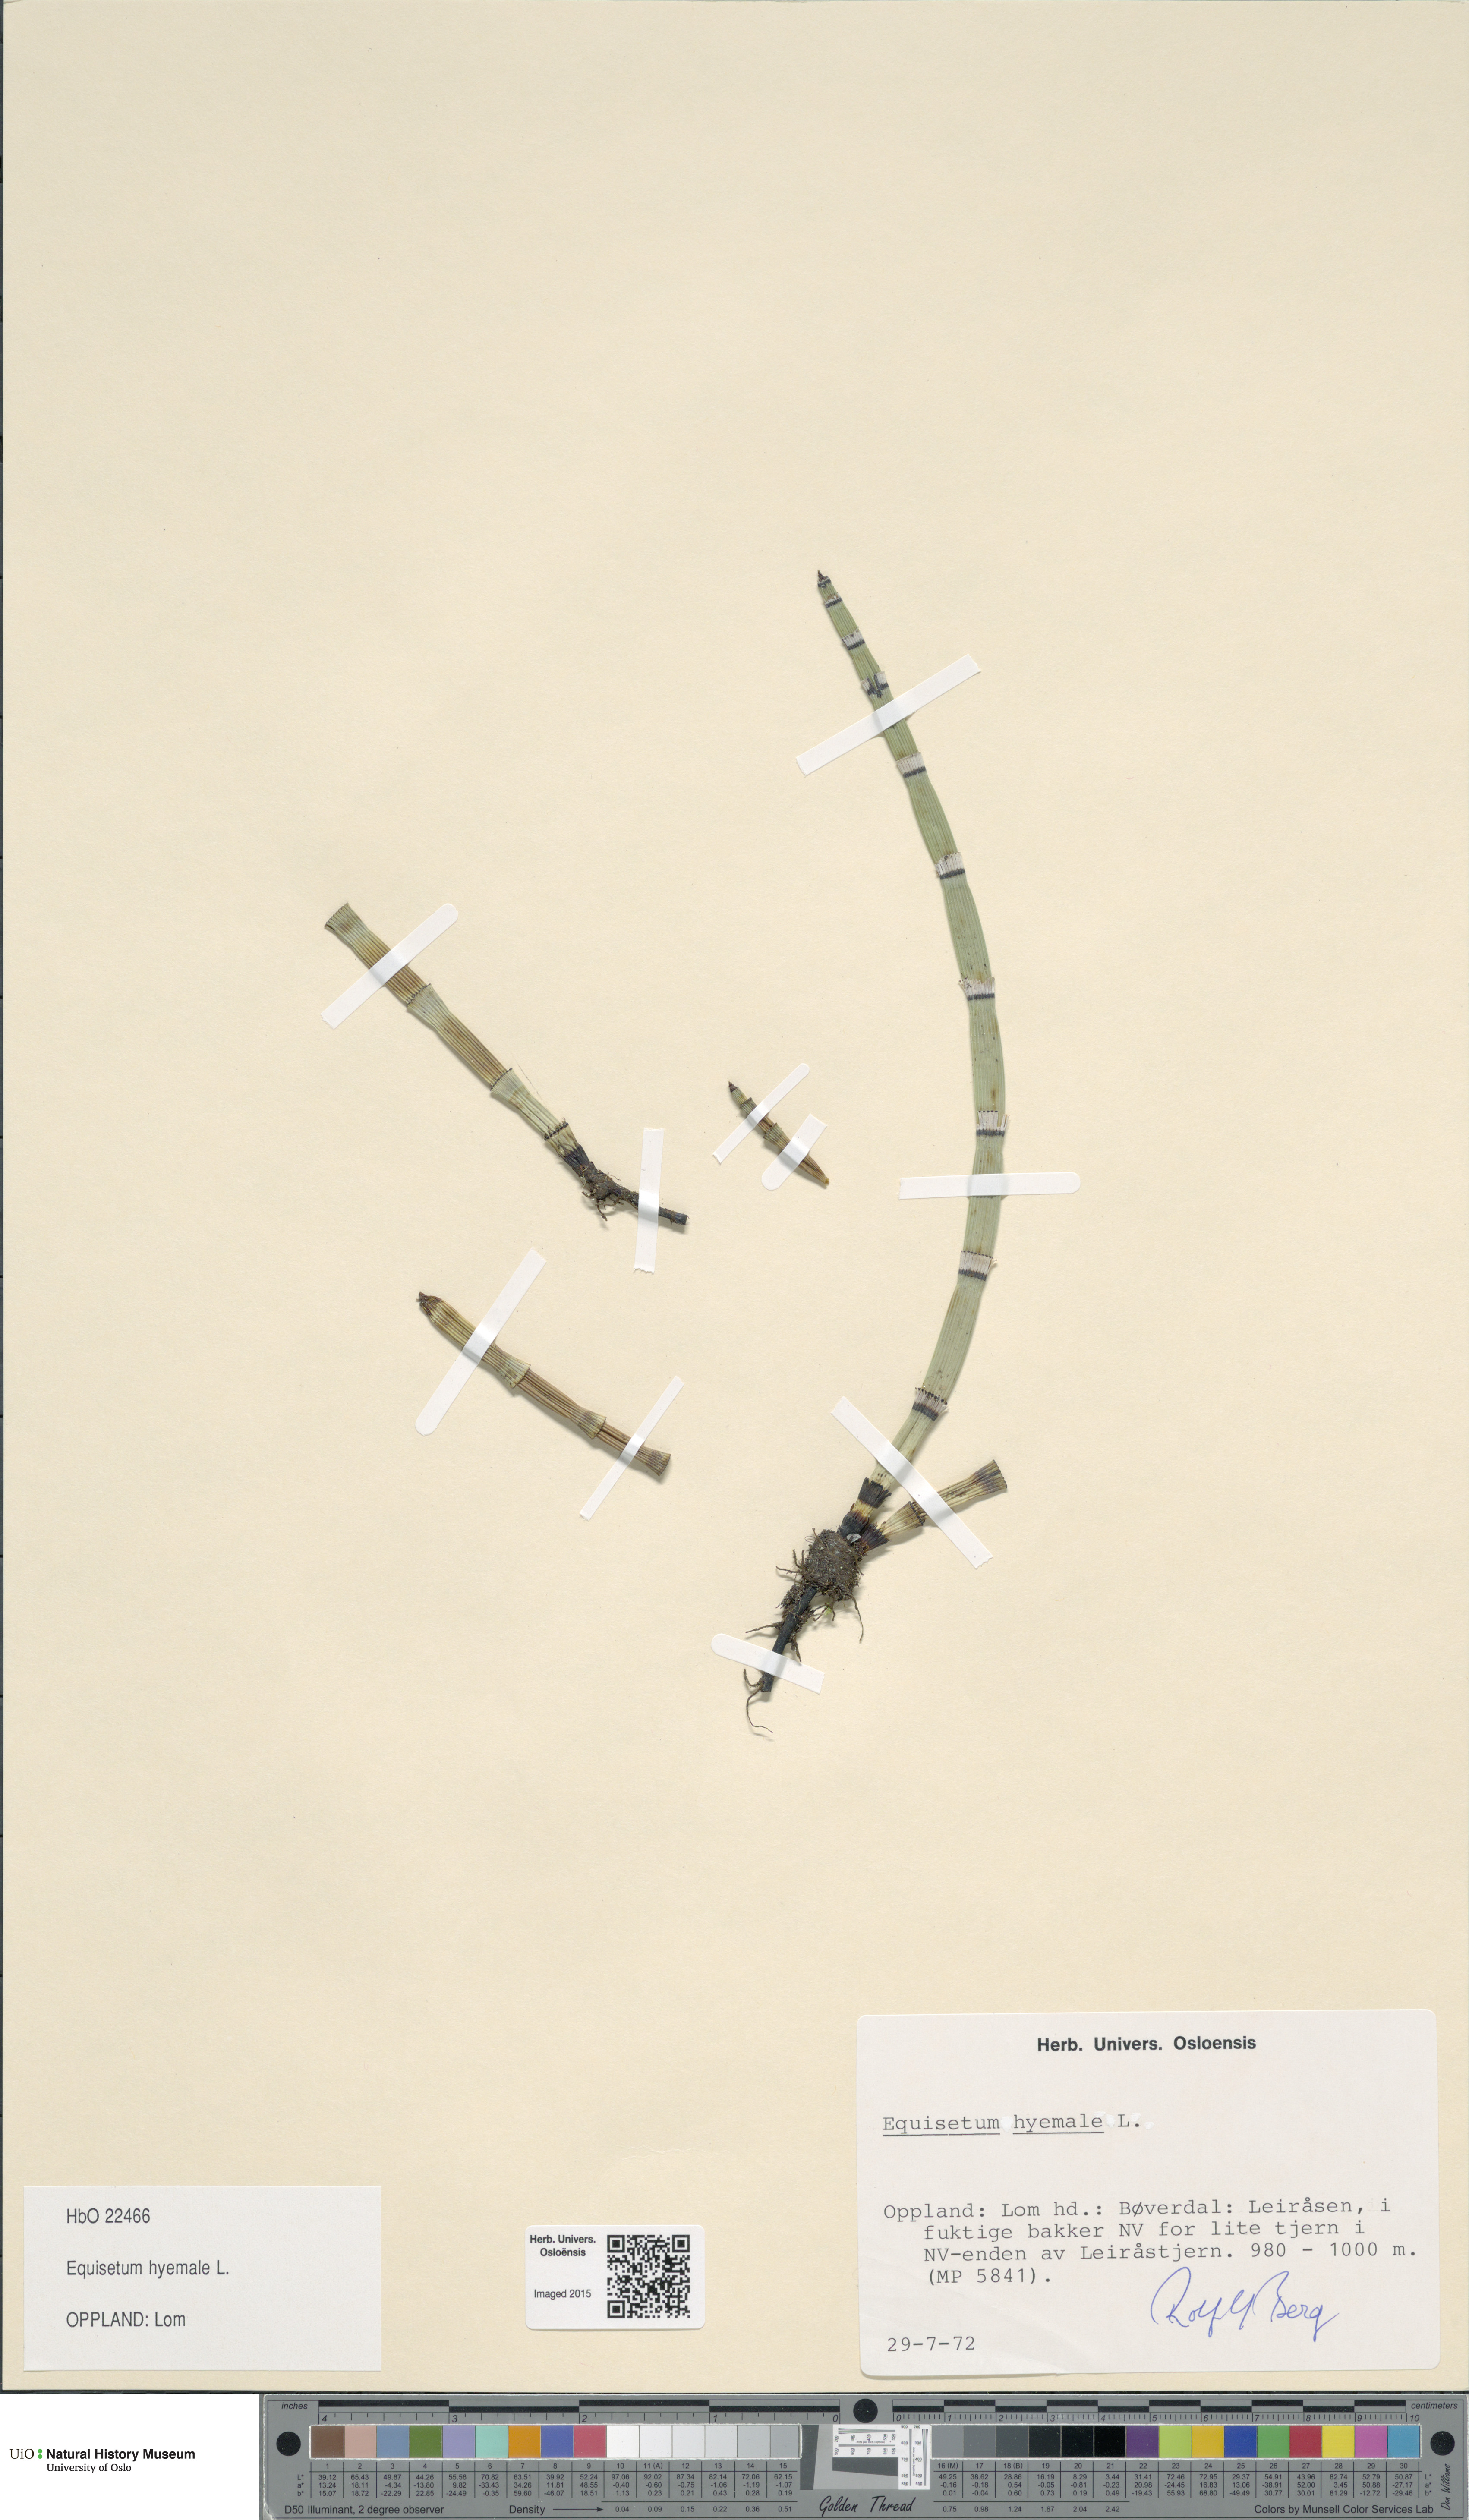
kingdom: Plantae
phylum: Tracheophyta
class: Polypodiopsida
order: Equisetales
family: Equisetaceae
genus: Equisetum
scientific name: Equisetum hyemale
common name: Rough horsetail
